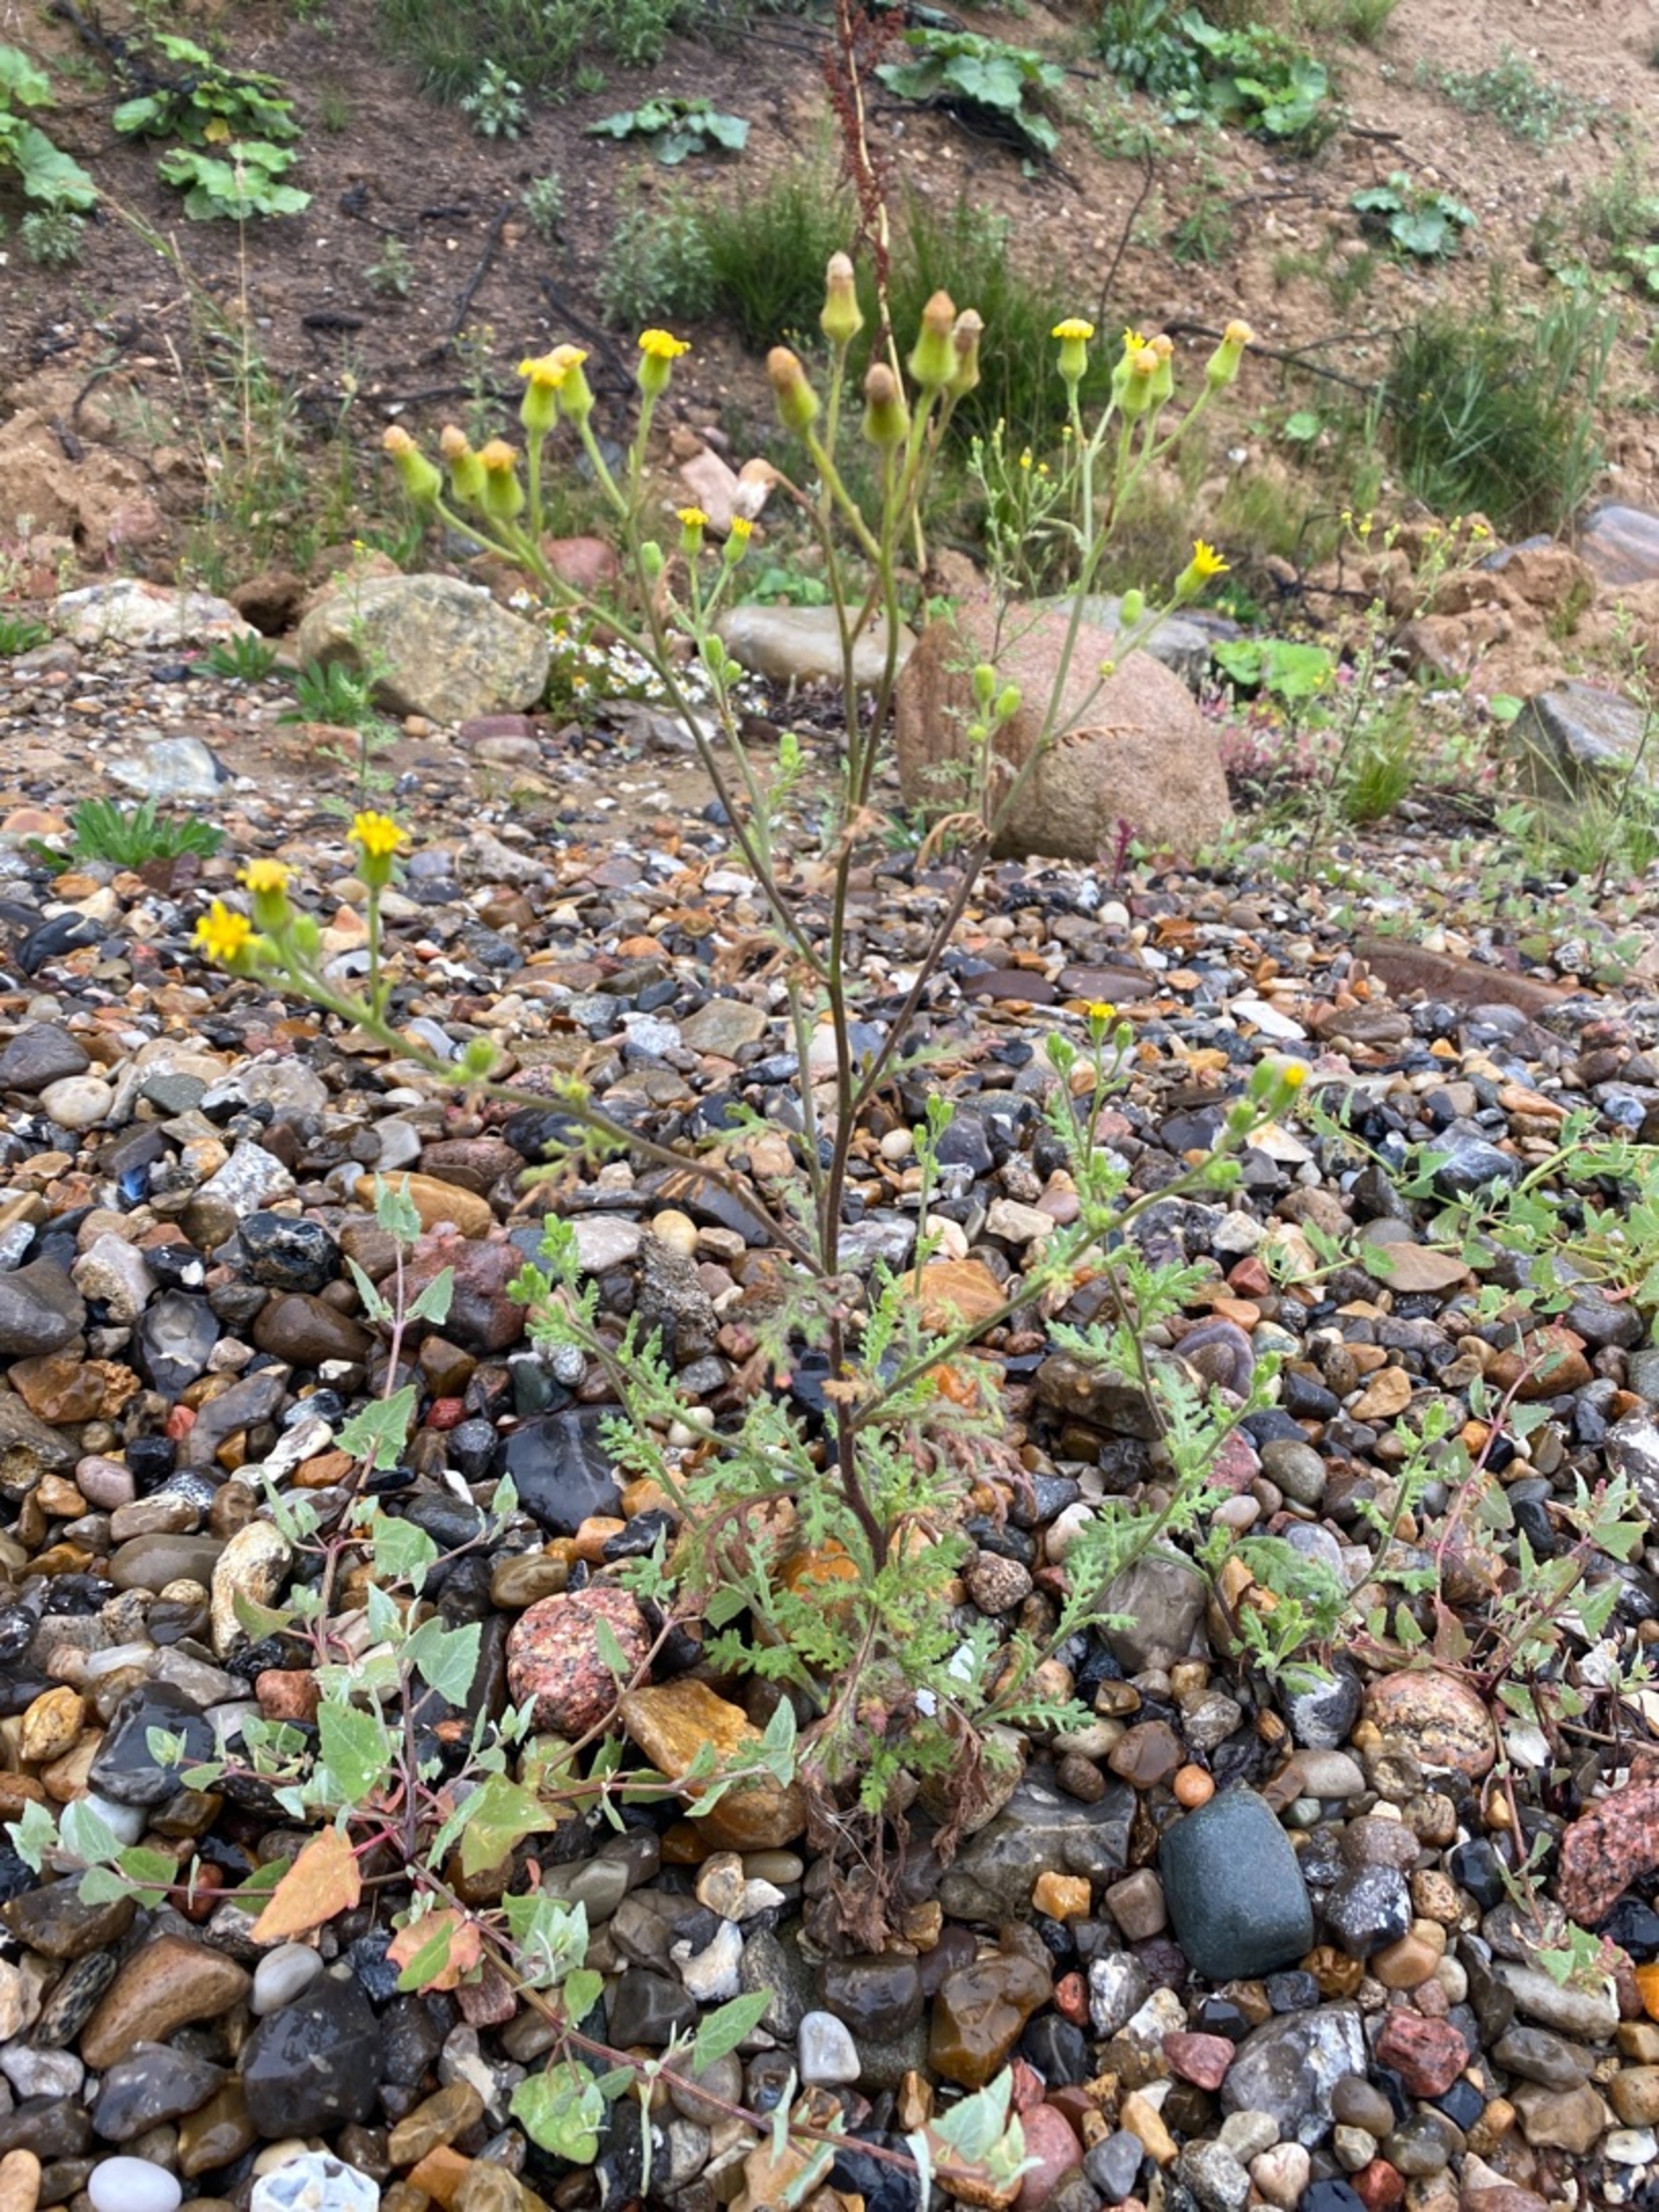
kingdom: Plantae
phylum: Tracheophyta
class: Magnoliopsida
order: Asterales
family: Asteraceae
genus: Senecio
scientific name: Senecio viscosus
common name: Klæbrig brandbæger
